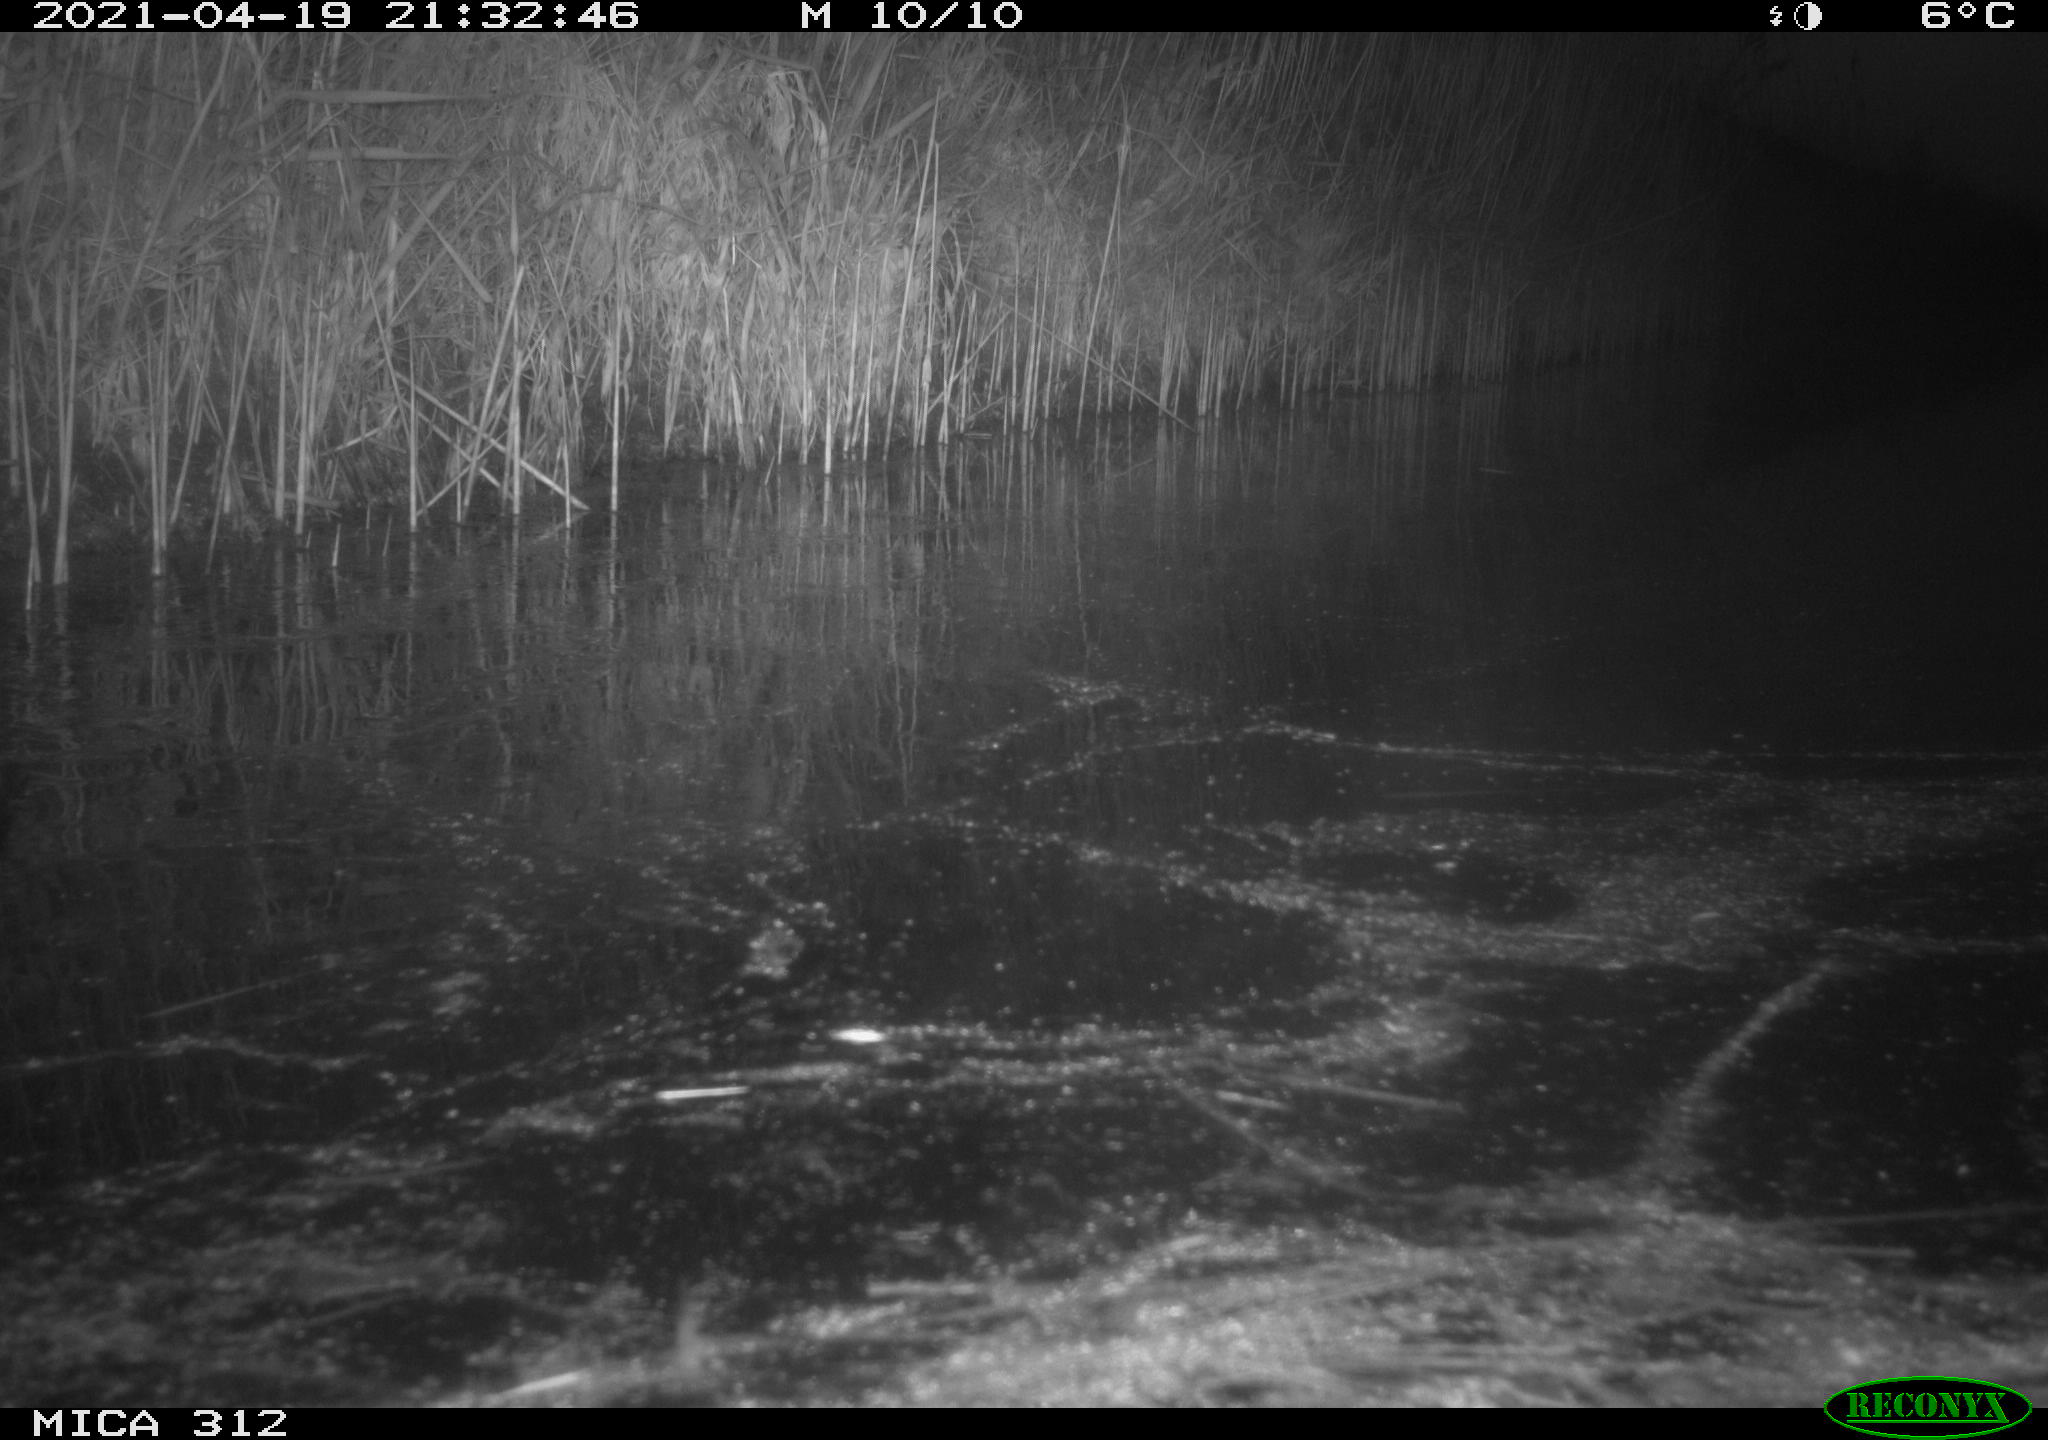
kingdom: Animalia
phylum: Chordata
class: Aves
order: Gruiformes
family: Rallidae
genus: Fulica
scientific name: Fulica atra
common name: Eurasian coot
